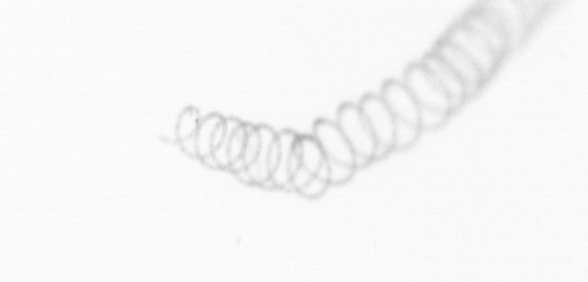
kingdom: Chromista
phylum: Ochrophyta
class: Bacillariophyceae
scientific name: Bacillariophyceae
